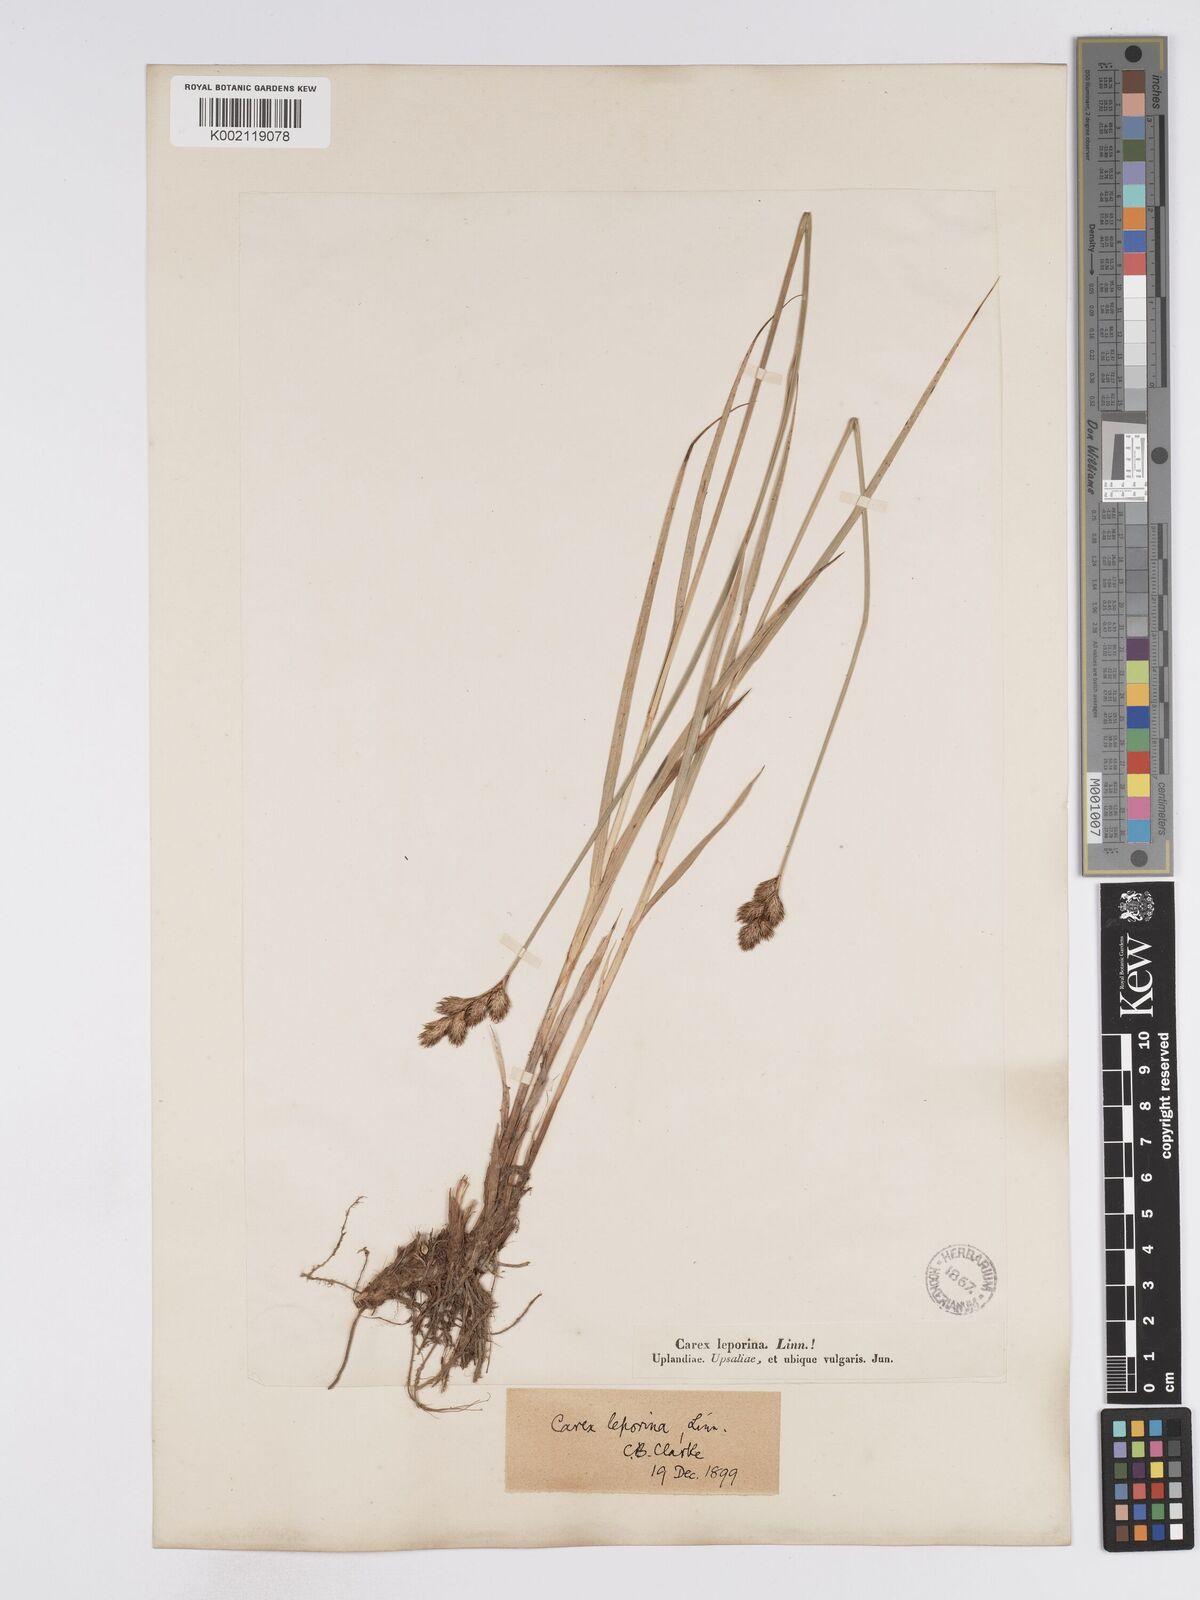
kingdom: Plantae
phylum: Tracheophyta
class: Liliopsida
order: Poales
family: Cyperaceae
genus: Carex
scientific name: Carex leporina
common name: Oval sedge
